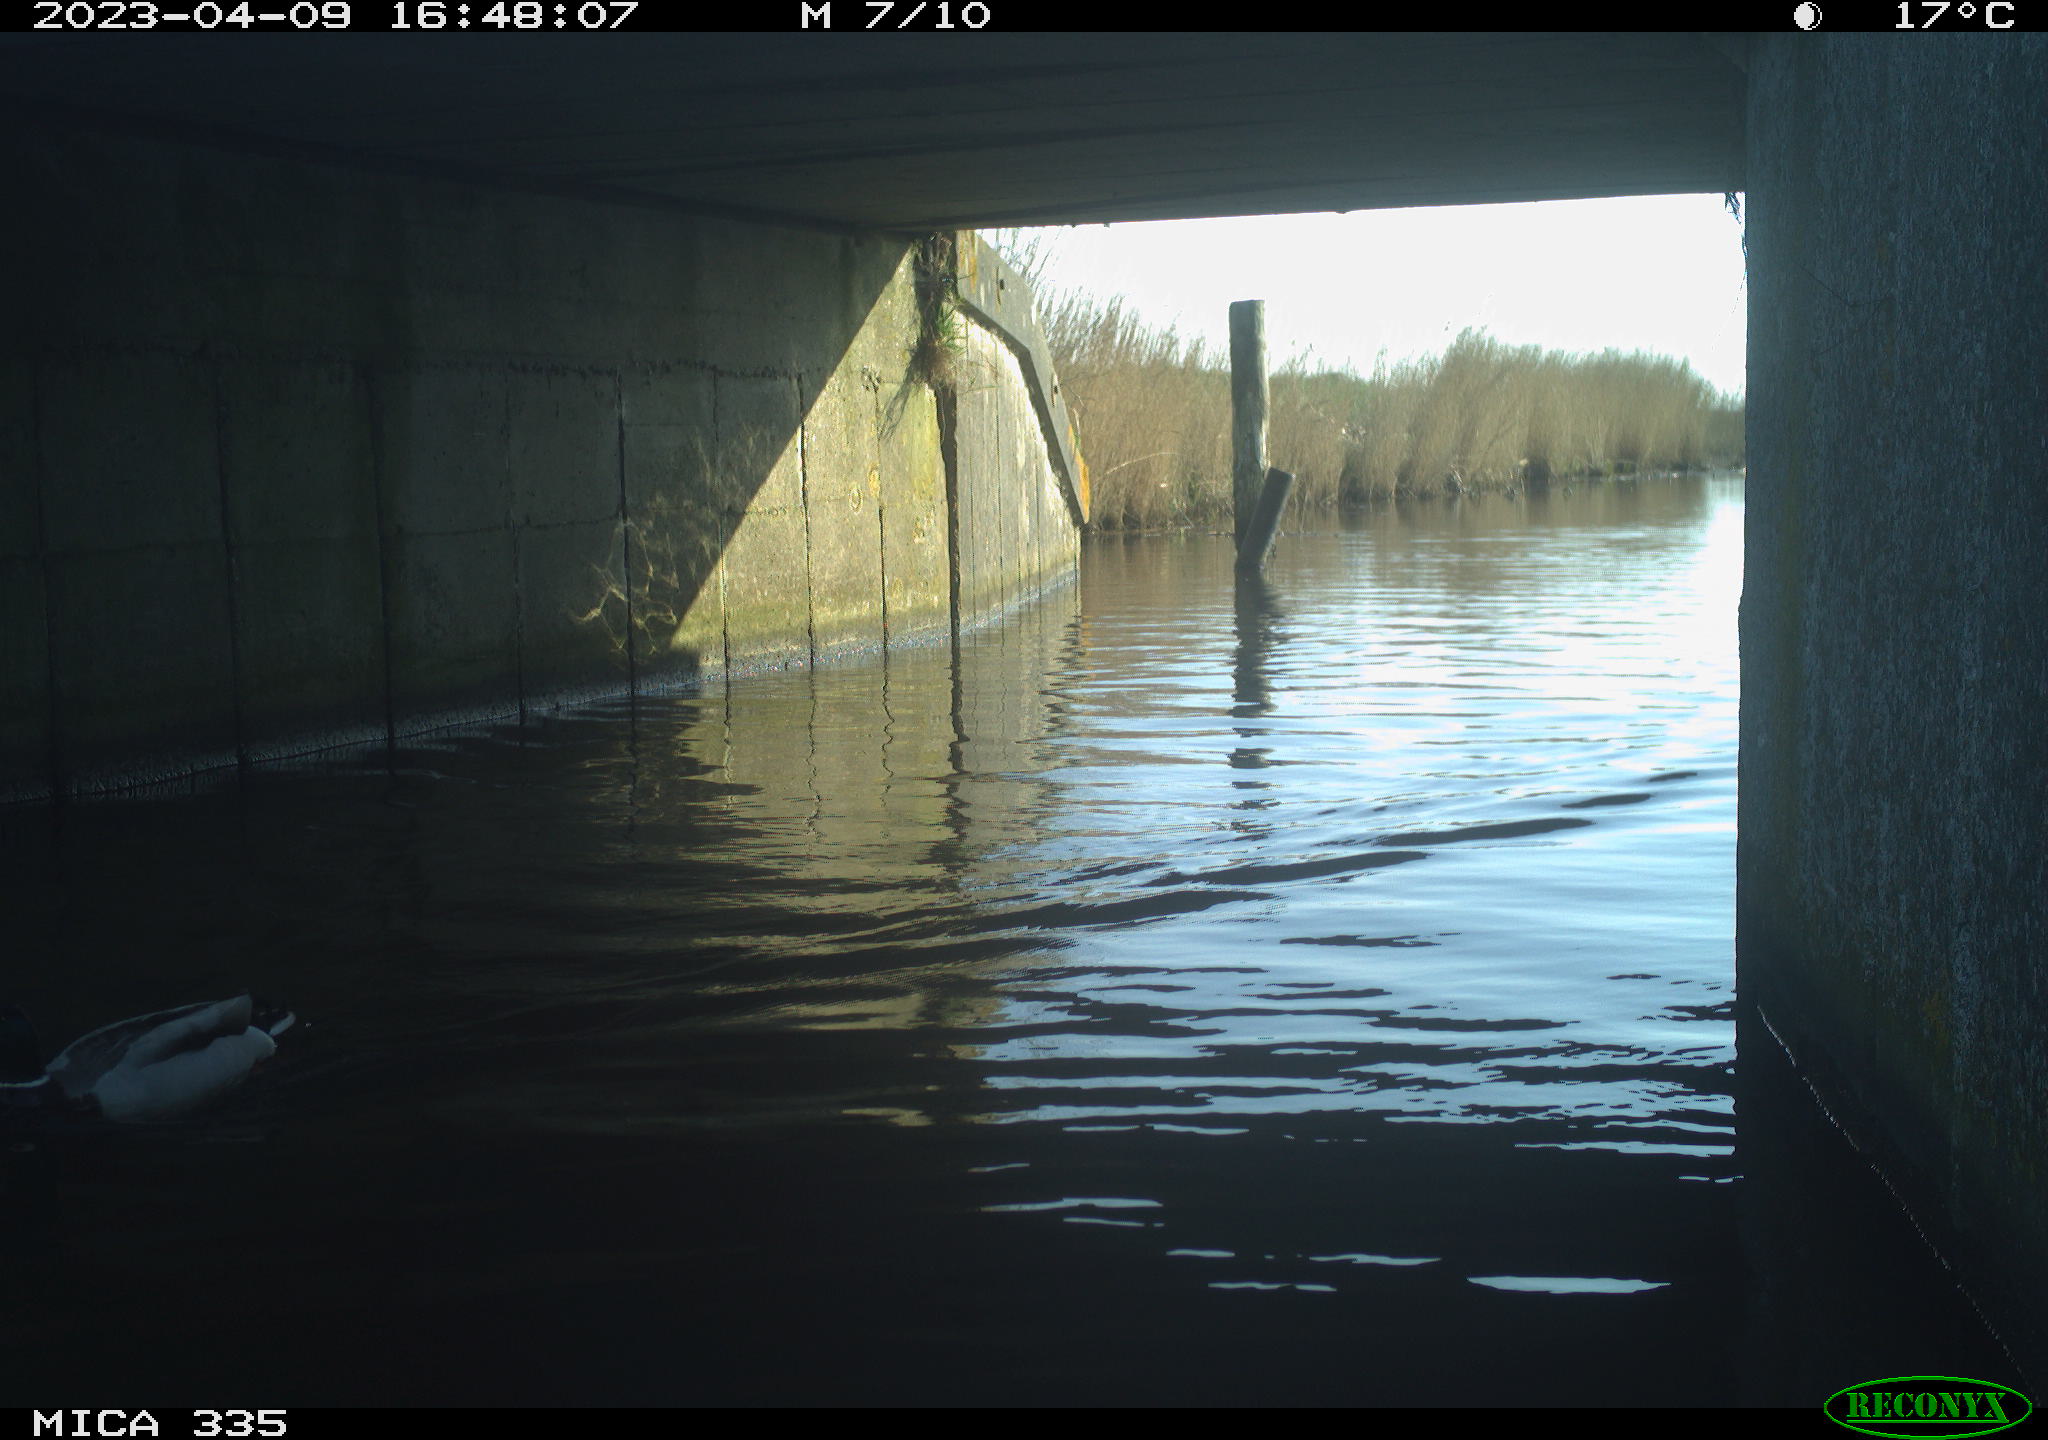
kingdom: Animalia
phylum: Chordata
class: Aves
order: Anseriformes
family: Anatidae
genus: Anas
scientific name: Anas
